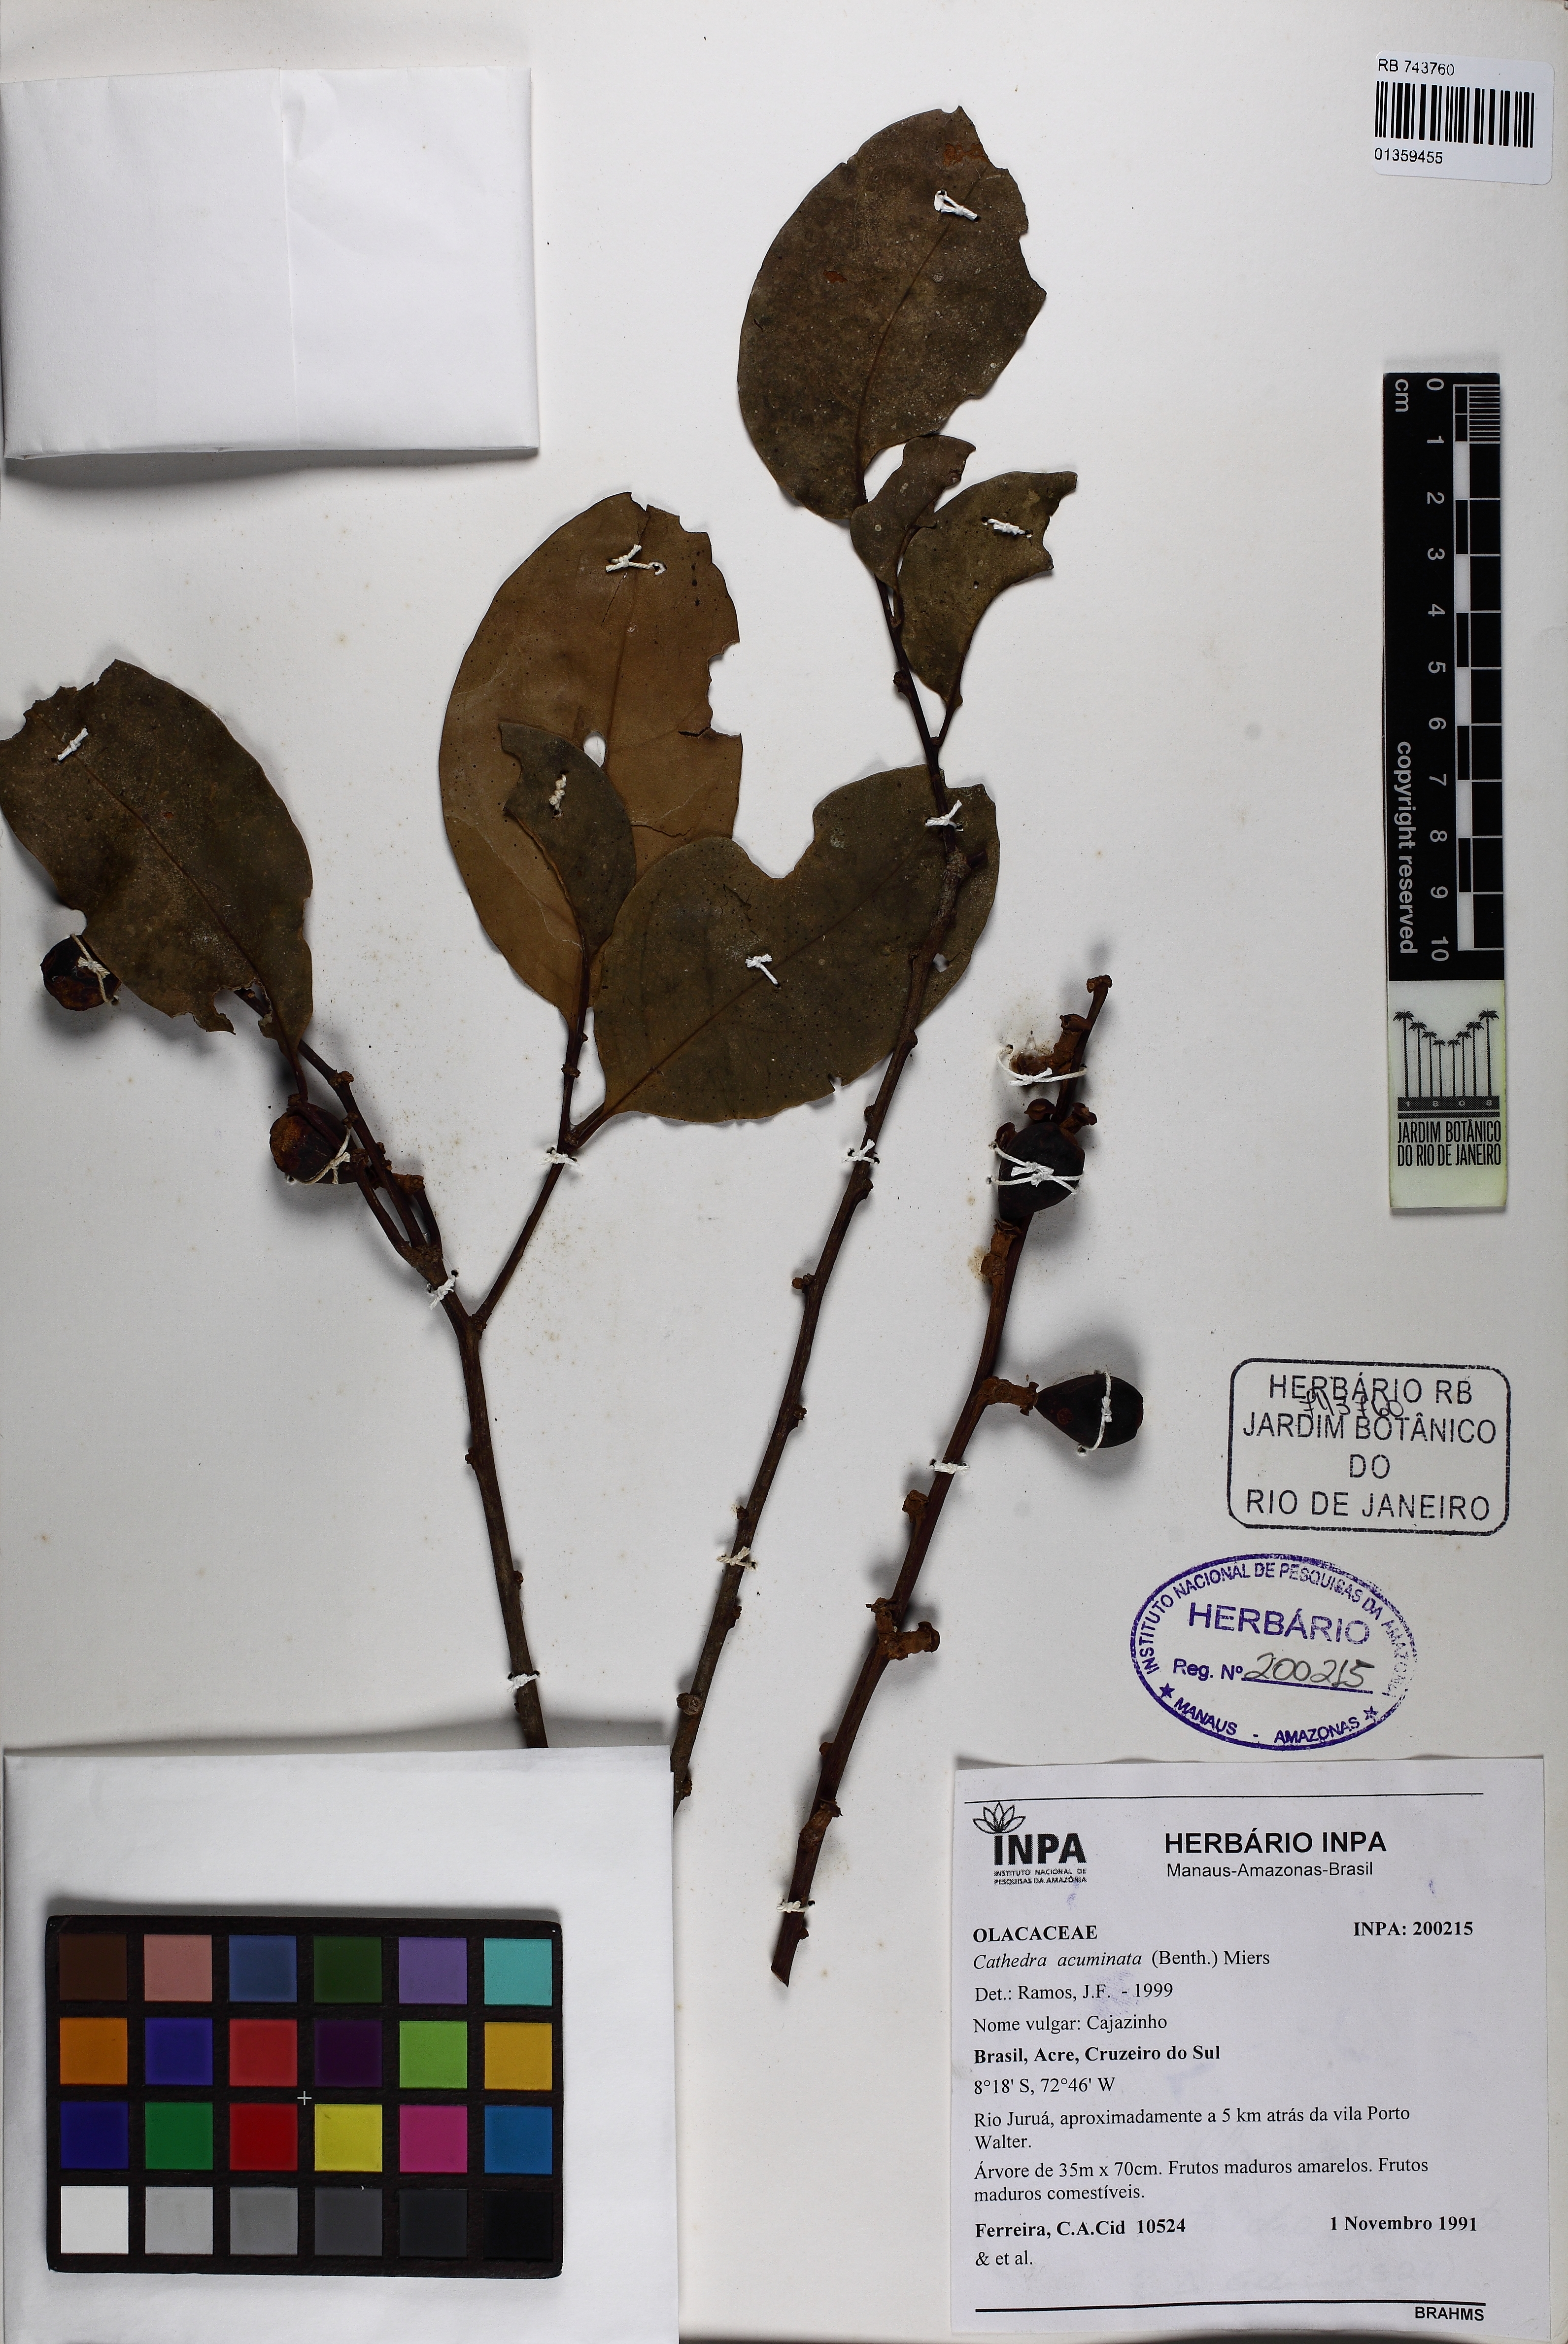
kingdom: Plantae
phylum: Tracheophyta
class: Magnoliopsida
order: Santalales
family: Aptandraceae
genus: Cathedra
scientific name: Cathedra acuminata
